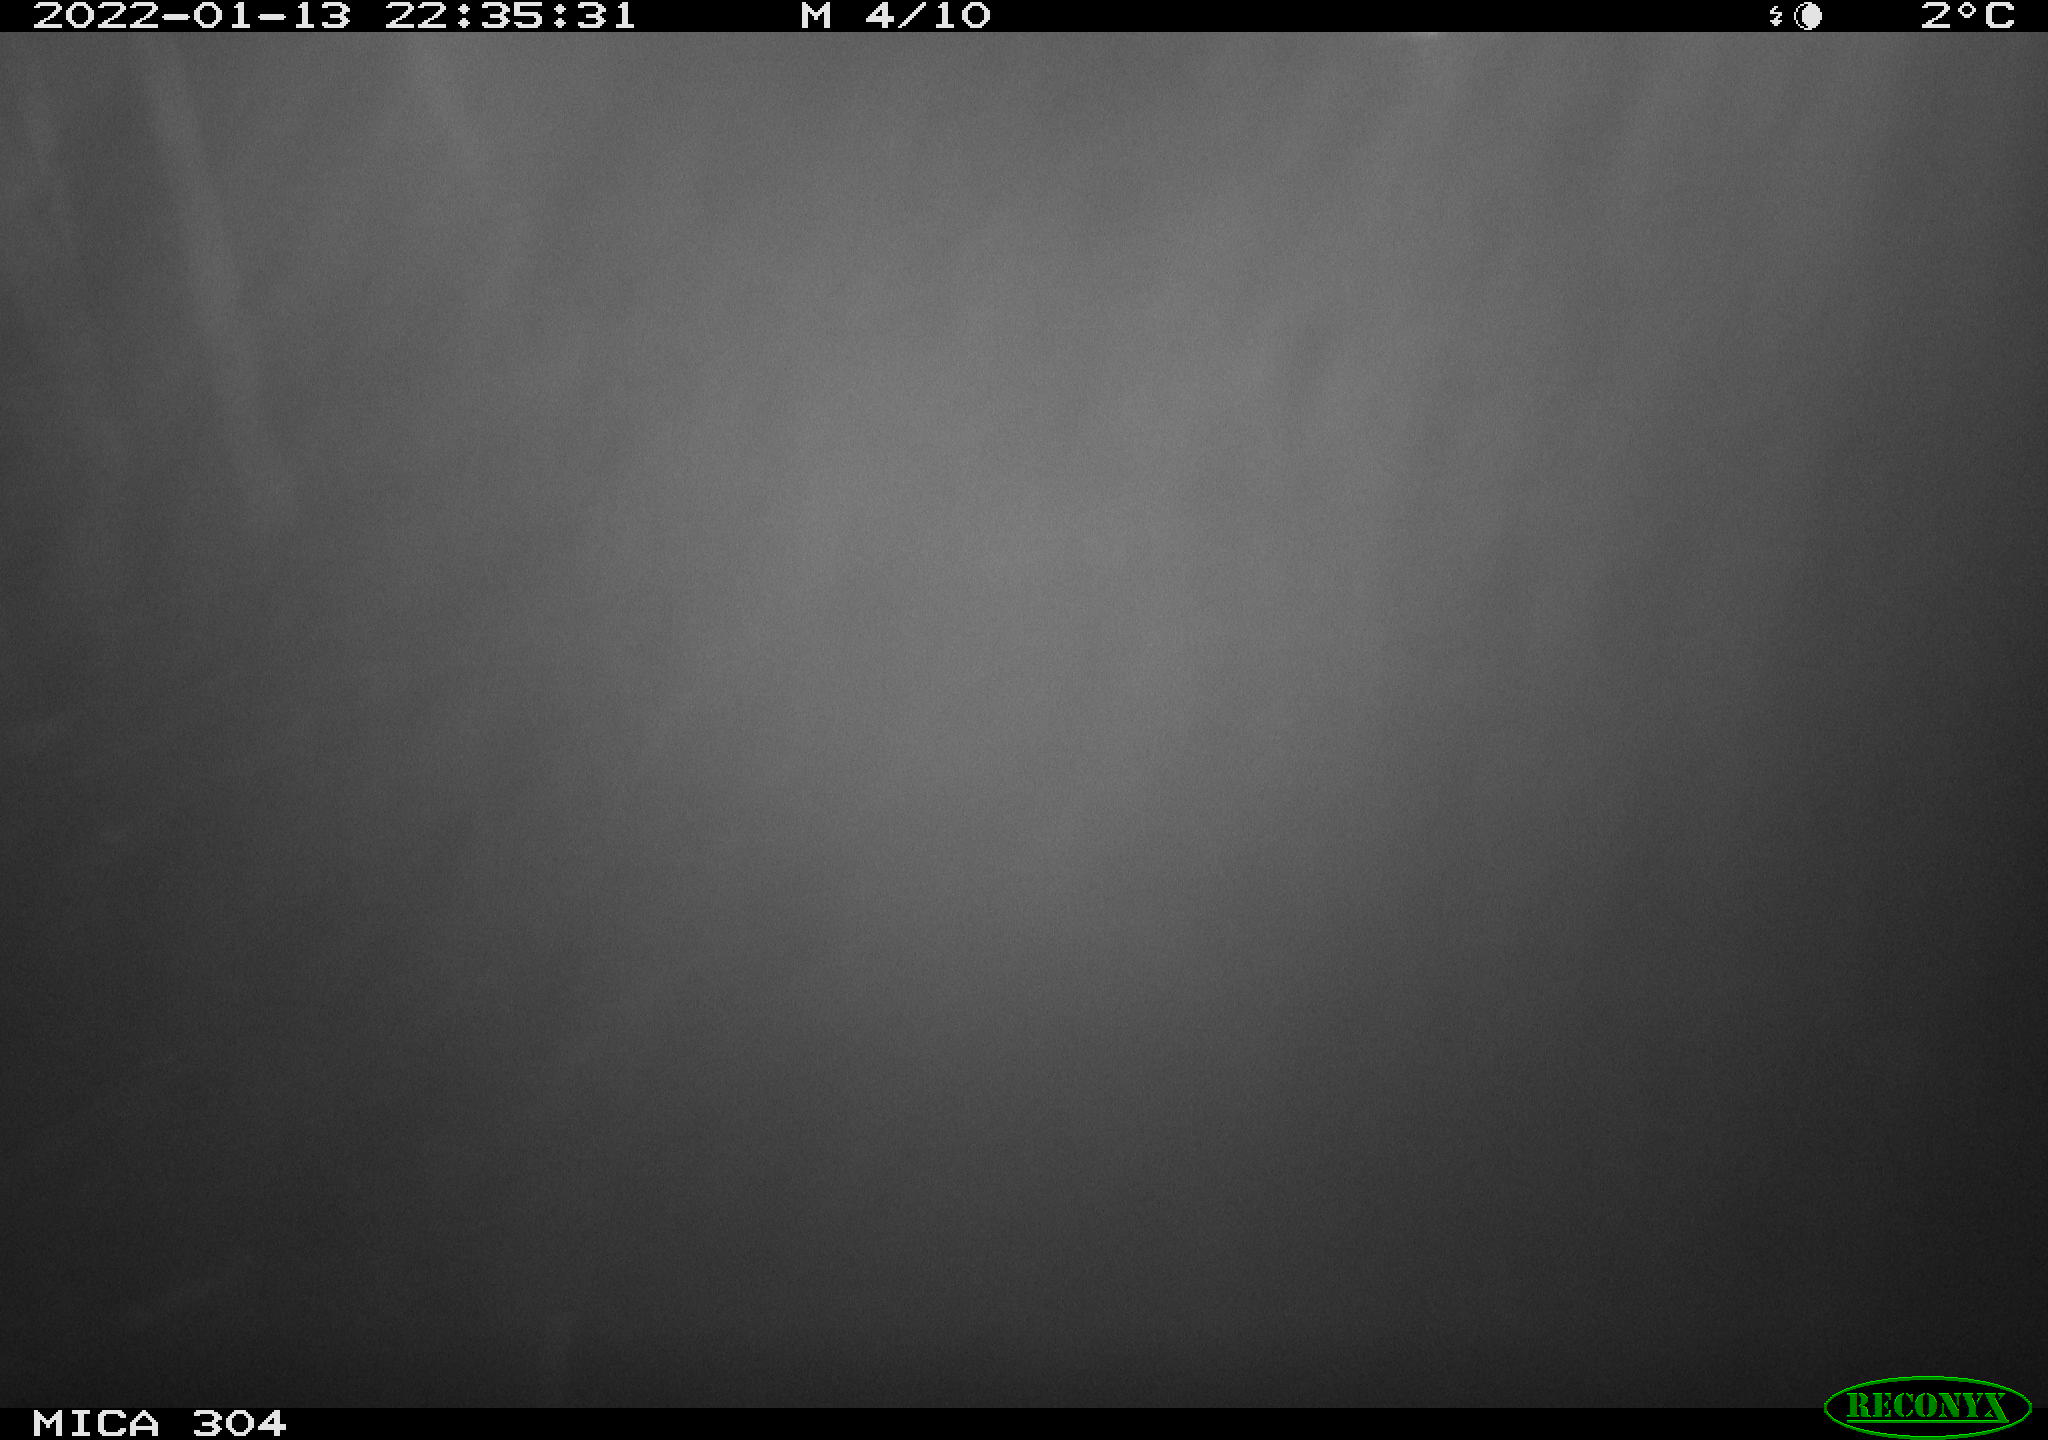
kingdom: Animalia
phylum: Chordata
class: Aves
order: Anseriformes
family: Anatidae
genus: Anas
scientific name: Anas platyrhynchos
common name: Mallard
